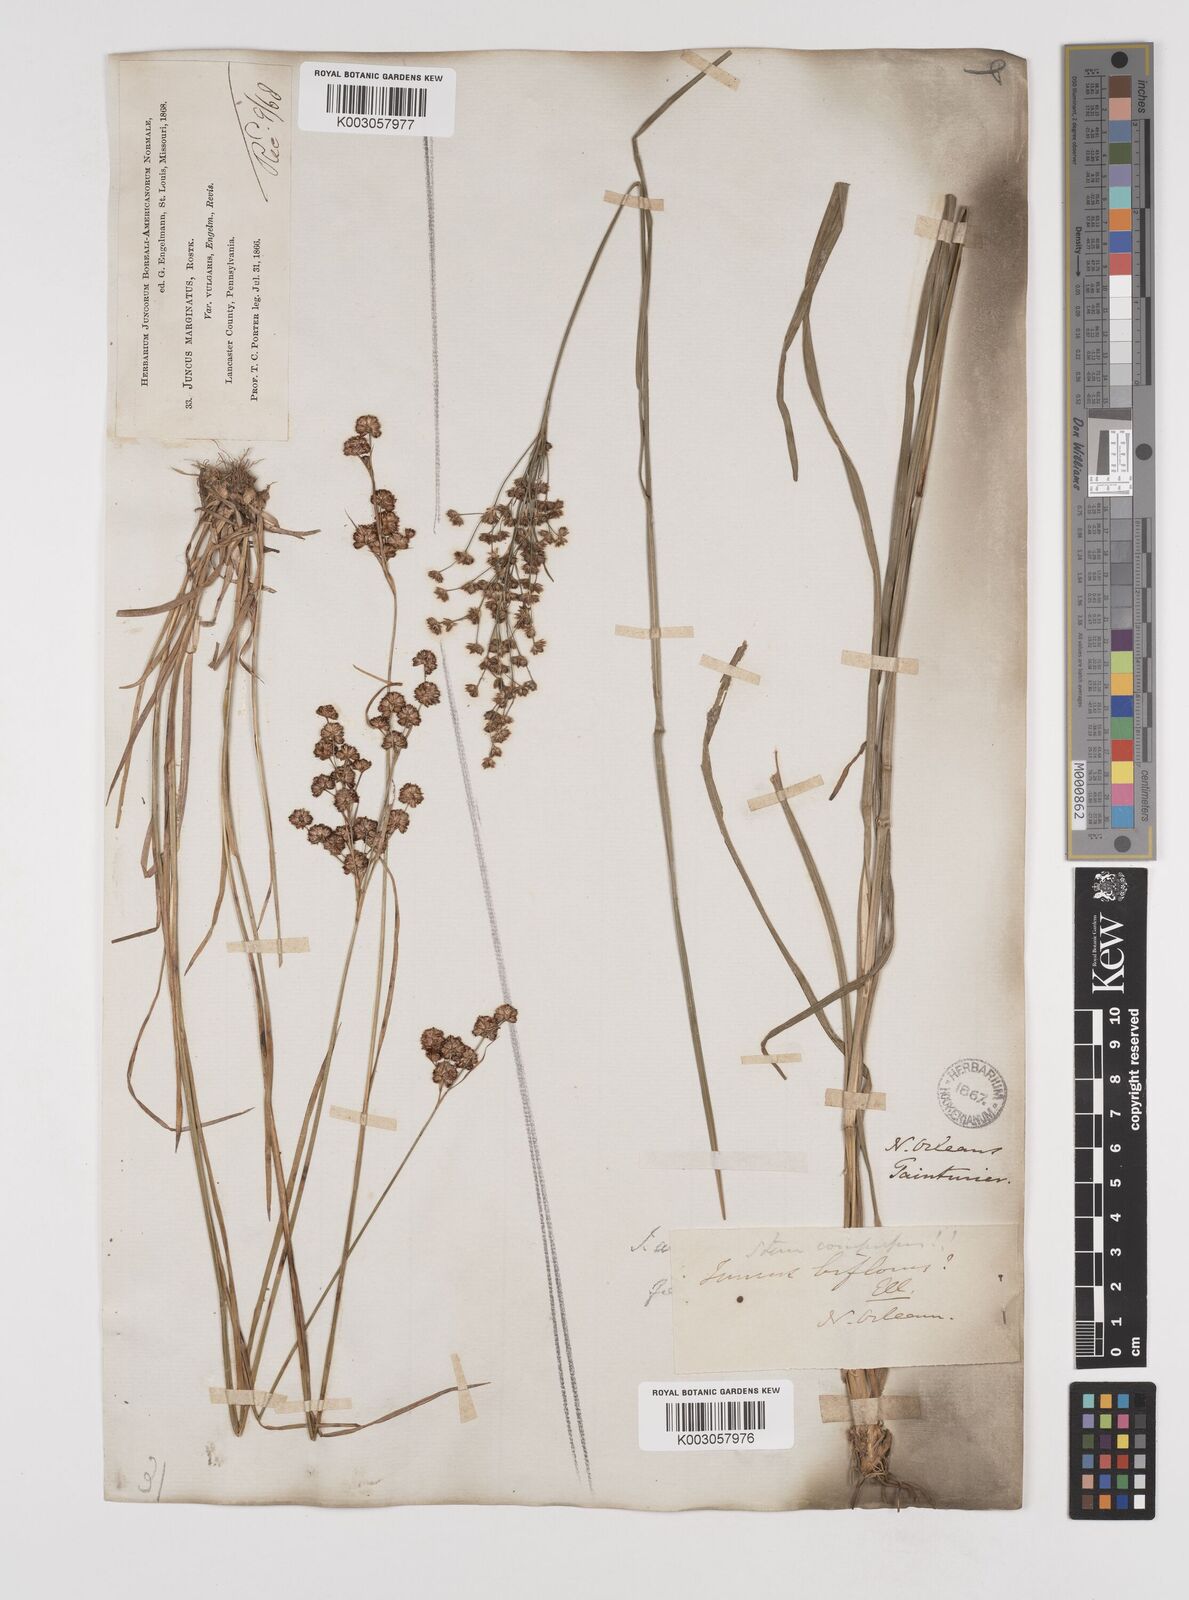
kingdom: Plantae
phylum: Tracheophyta
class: Liliopsida
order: Poales
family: Juncaceae
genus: Juncus
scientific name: Juncus marginatus
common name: Grass-leaf rush
